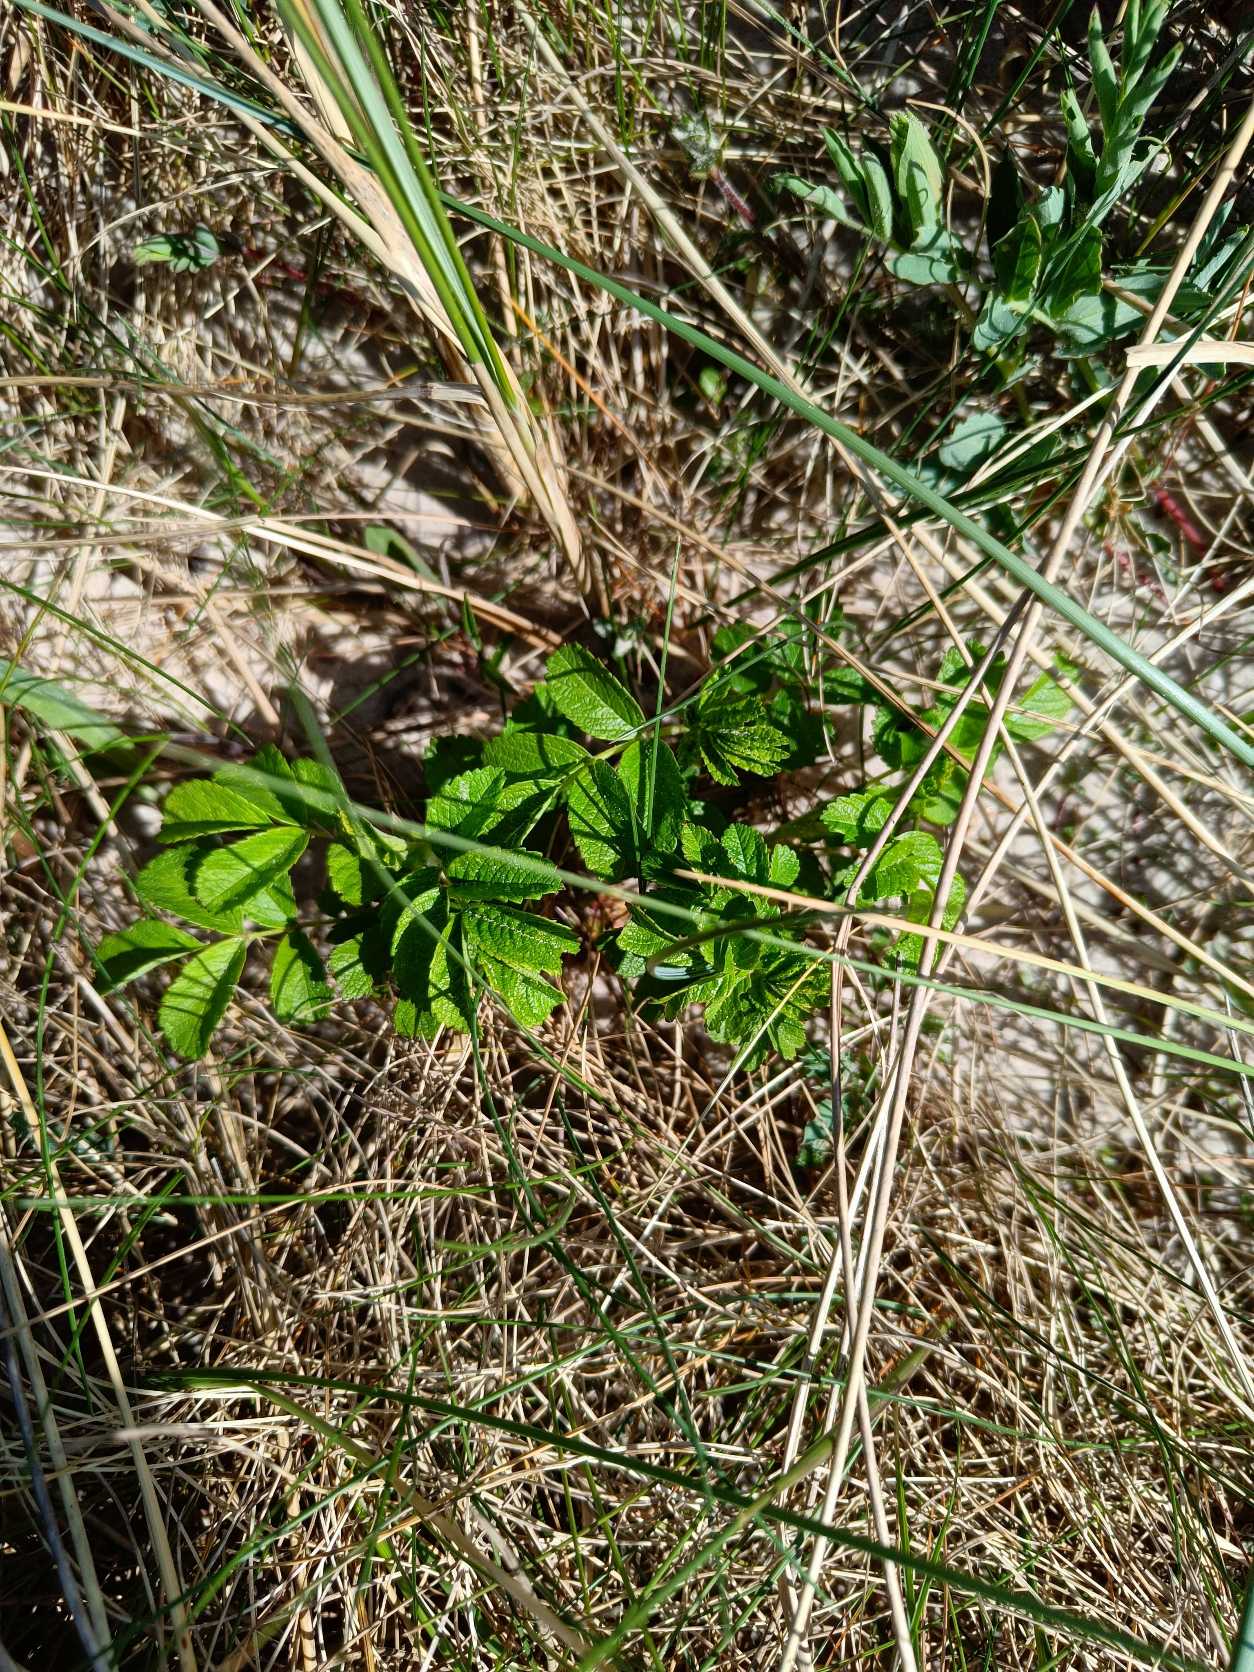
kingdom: Plantae
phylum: Tracheophyta
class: Magnoliopsida
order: Rosales
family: Rosaceae
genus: Rosa
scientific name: Rosa rugosa
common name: Rynket rose
